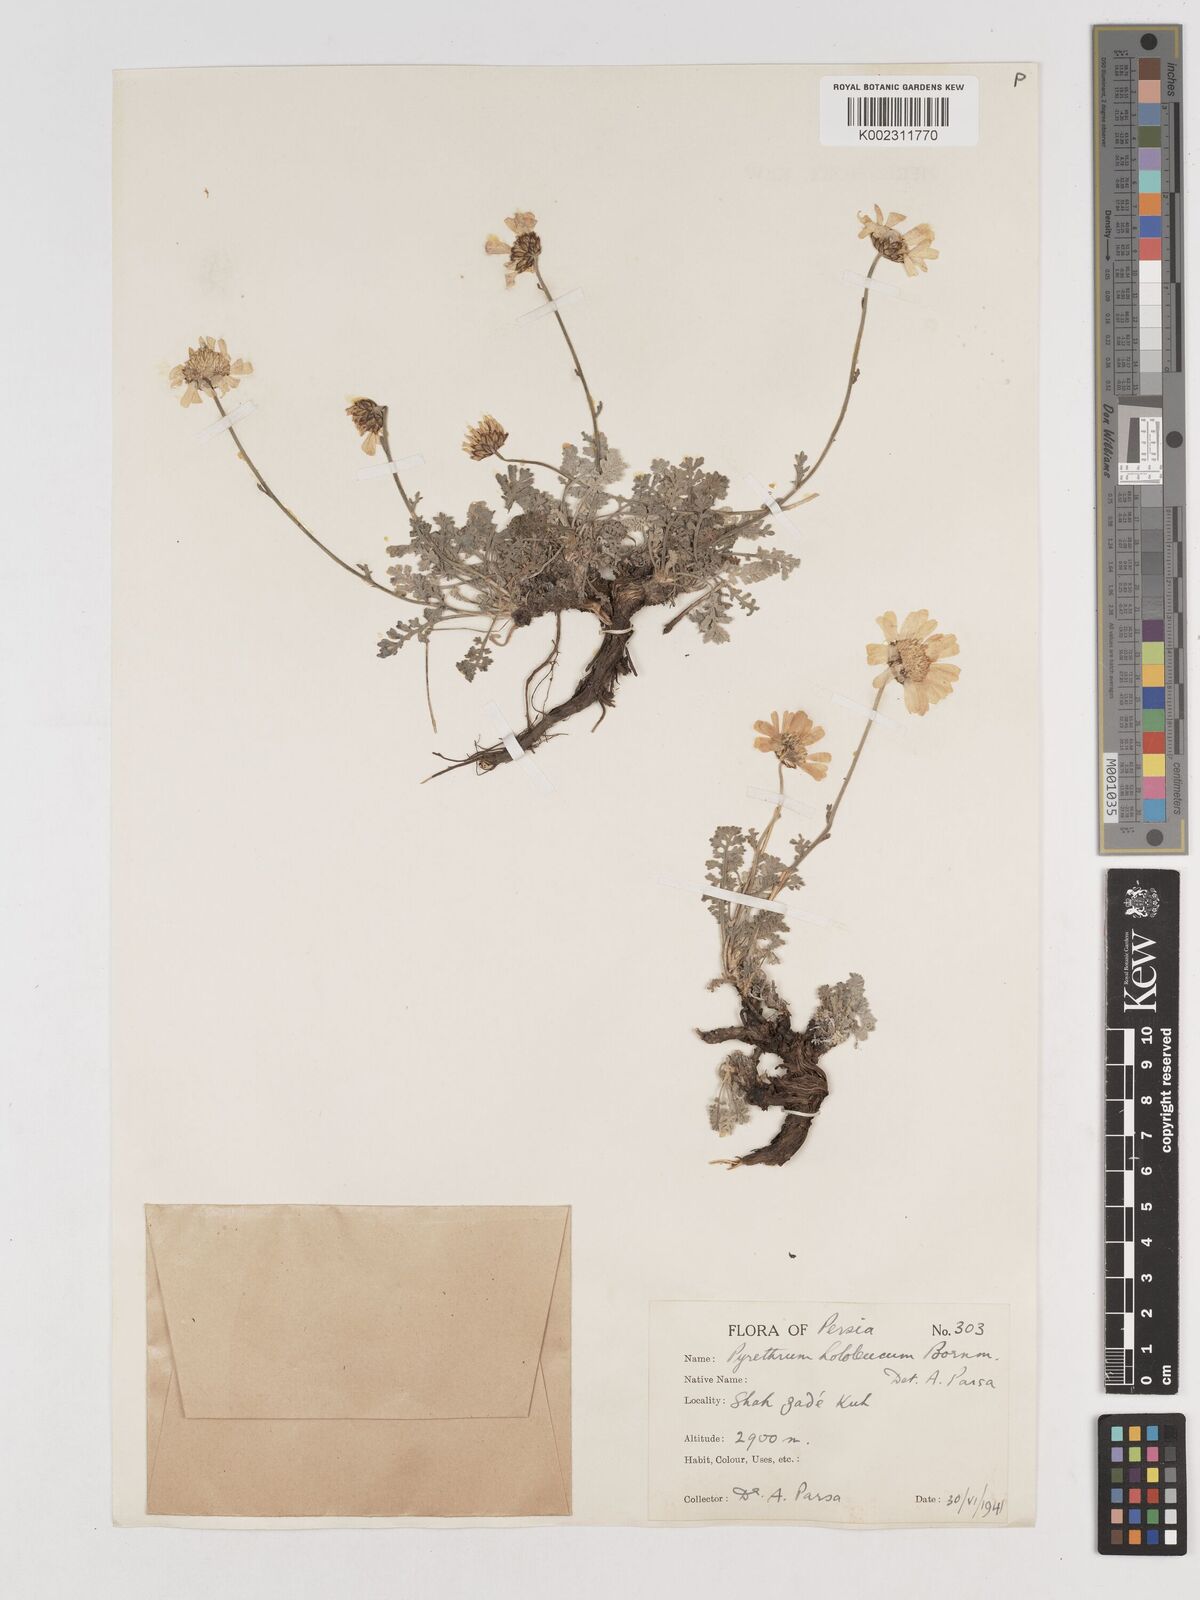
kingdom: Plantae
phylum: Tracheophyta
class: Magnoliopsida
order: Asterales
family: Asteraceae
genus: Tanacetum
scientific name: Tanacetum hololeucum
